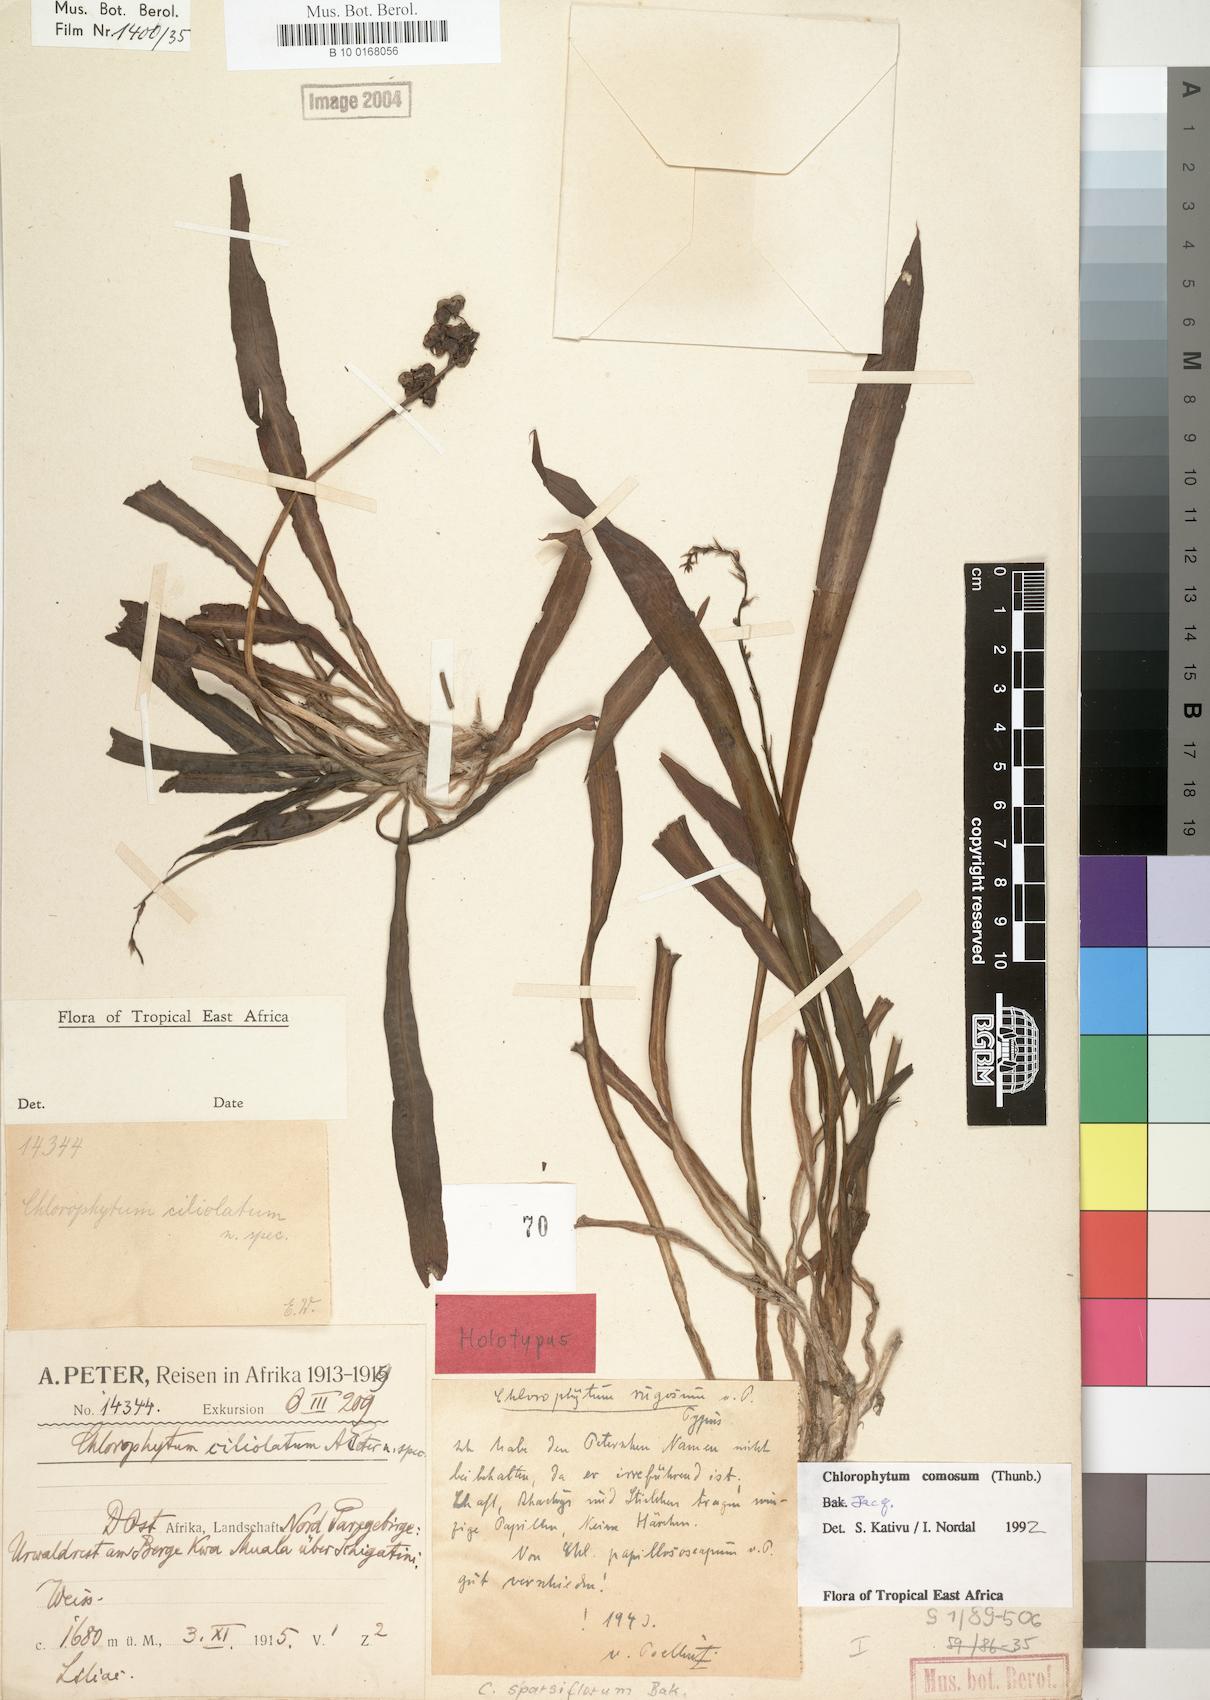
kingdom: Plantae
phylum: Tracheophyta
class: Liliopsida
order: Asparagales
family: Asparagaceae
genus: Chlorophytum
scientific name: Chlorophytum comosum
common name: Spider plant
